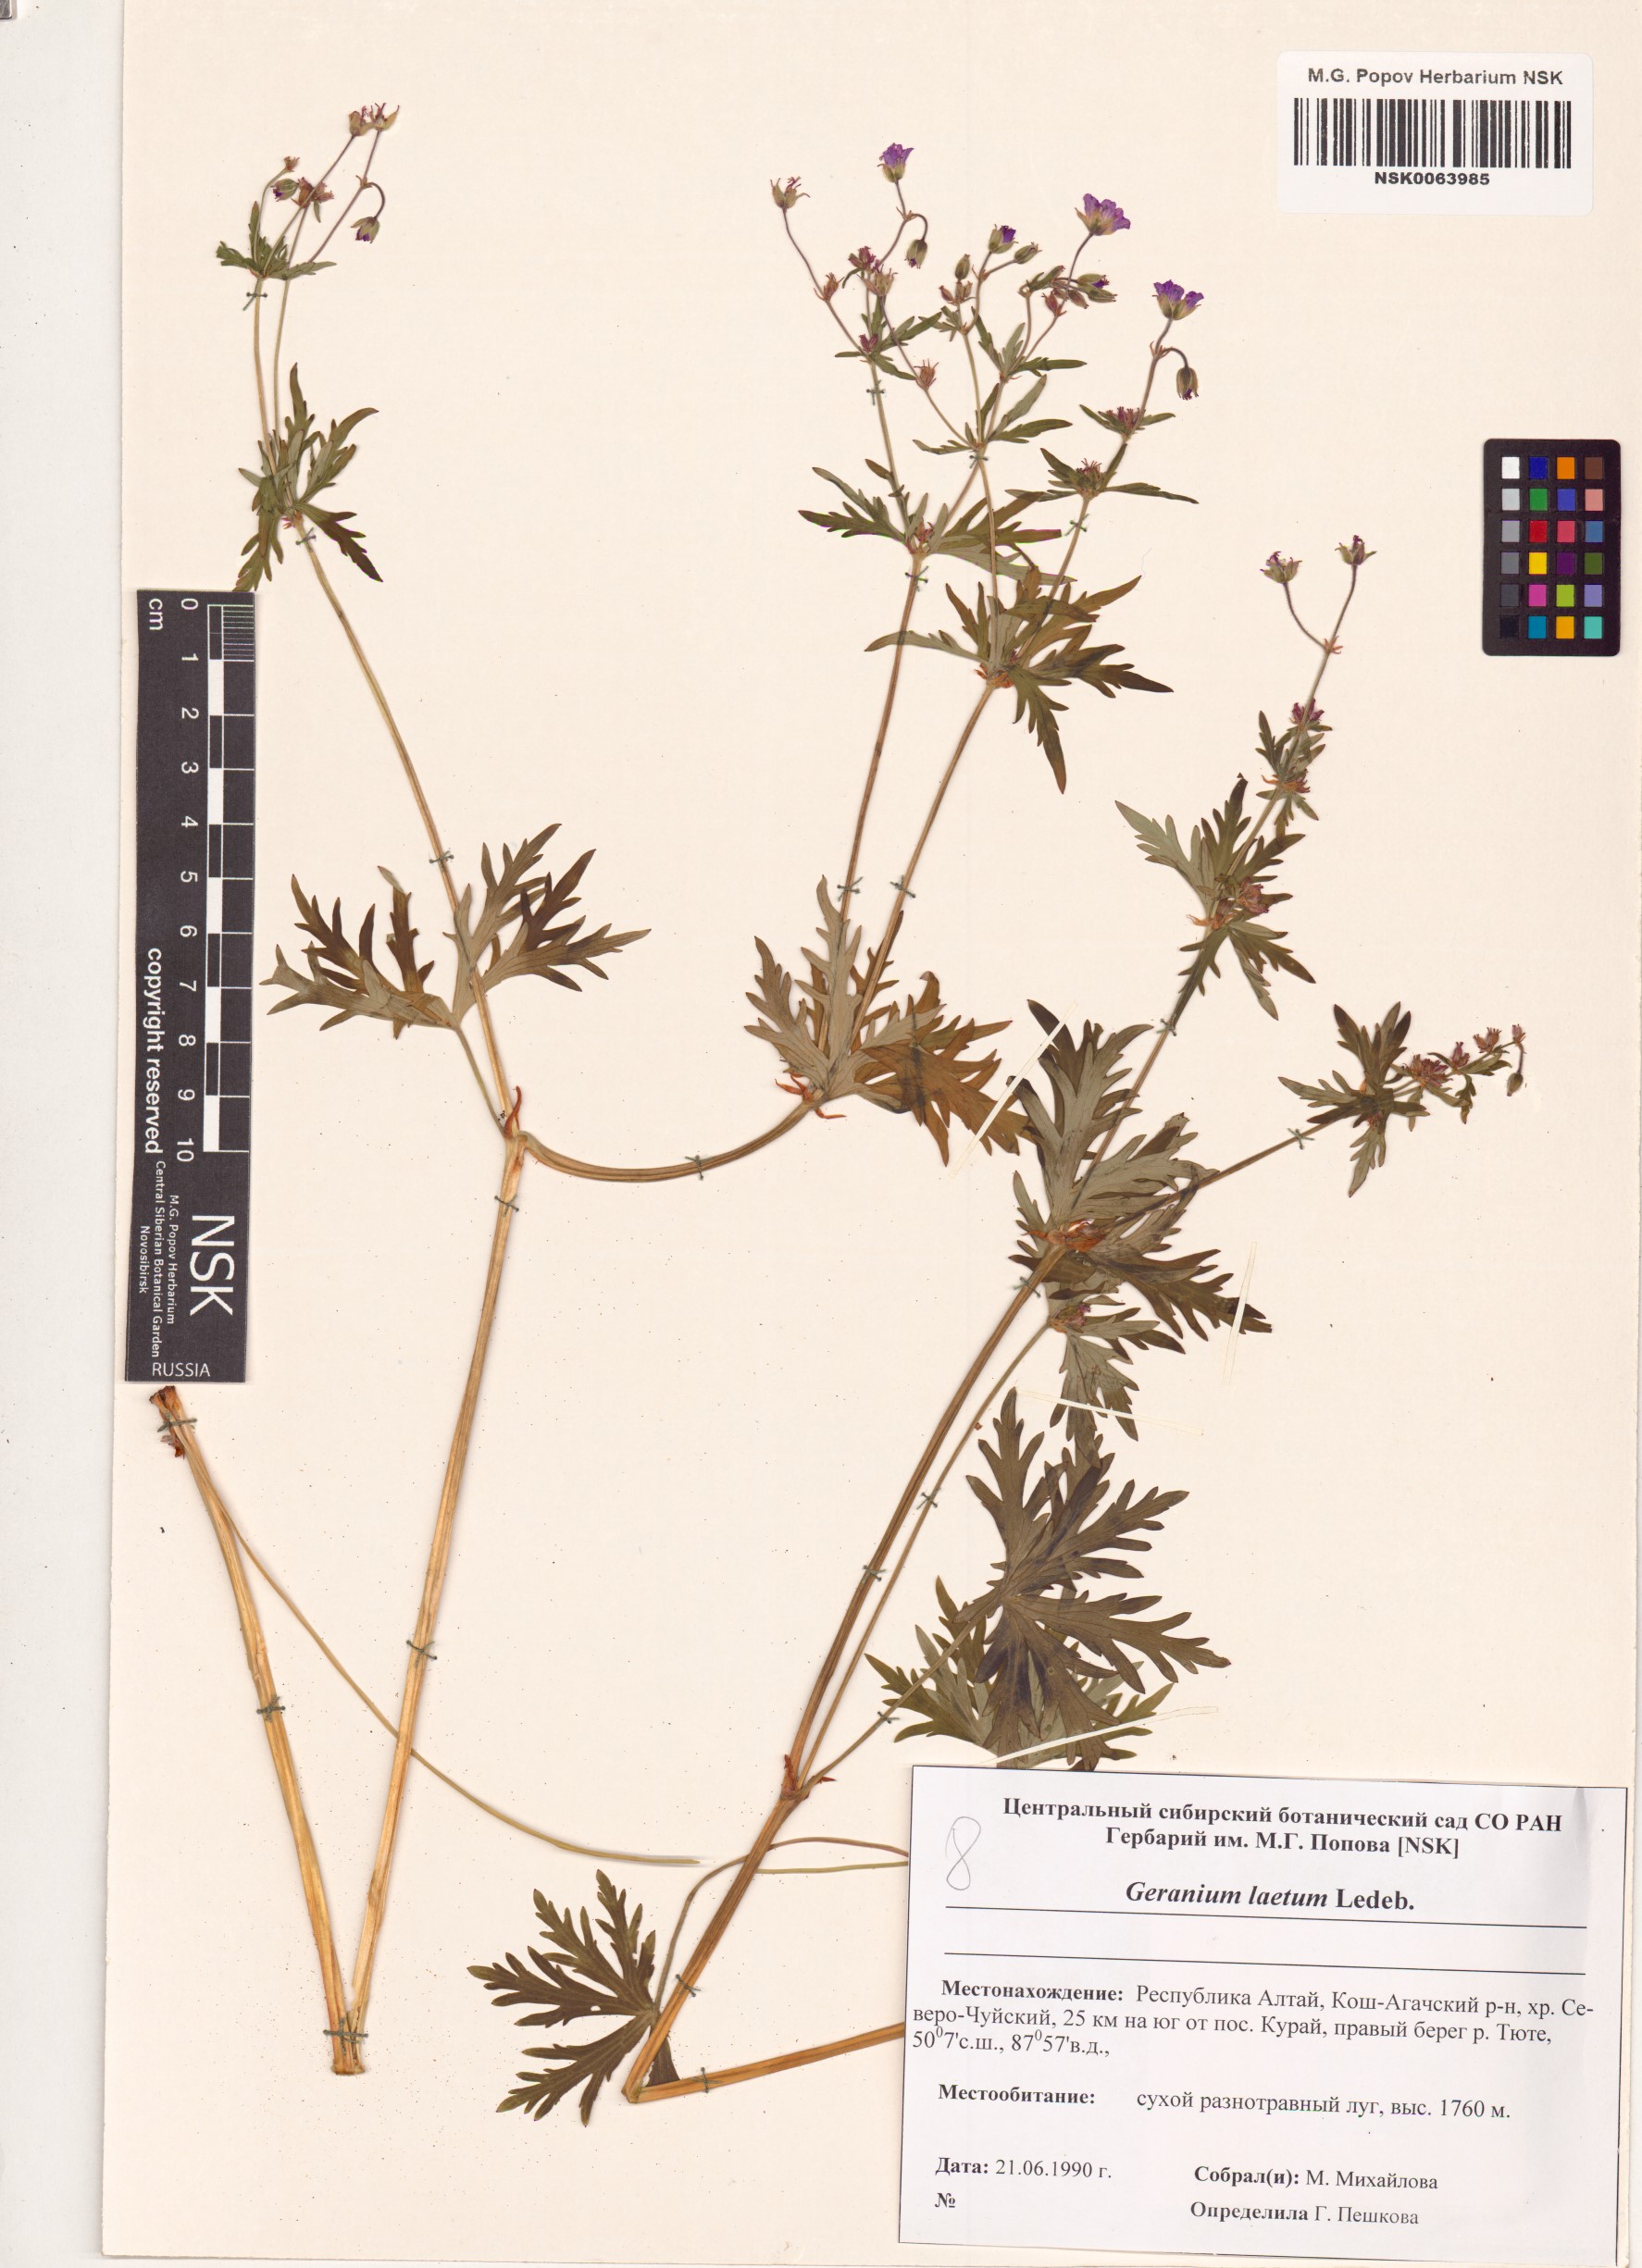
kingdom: Plantae
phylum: Tracheophyta
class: Magnoliopsida
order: Geraniales
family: Geraniaceae
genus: Geranium
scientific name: Geranium pseudosibiricum
